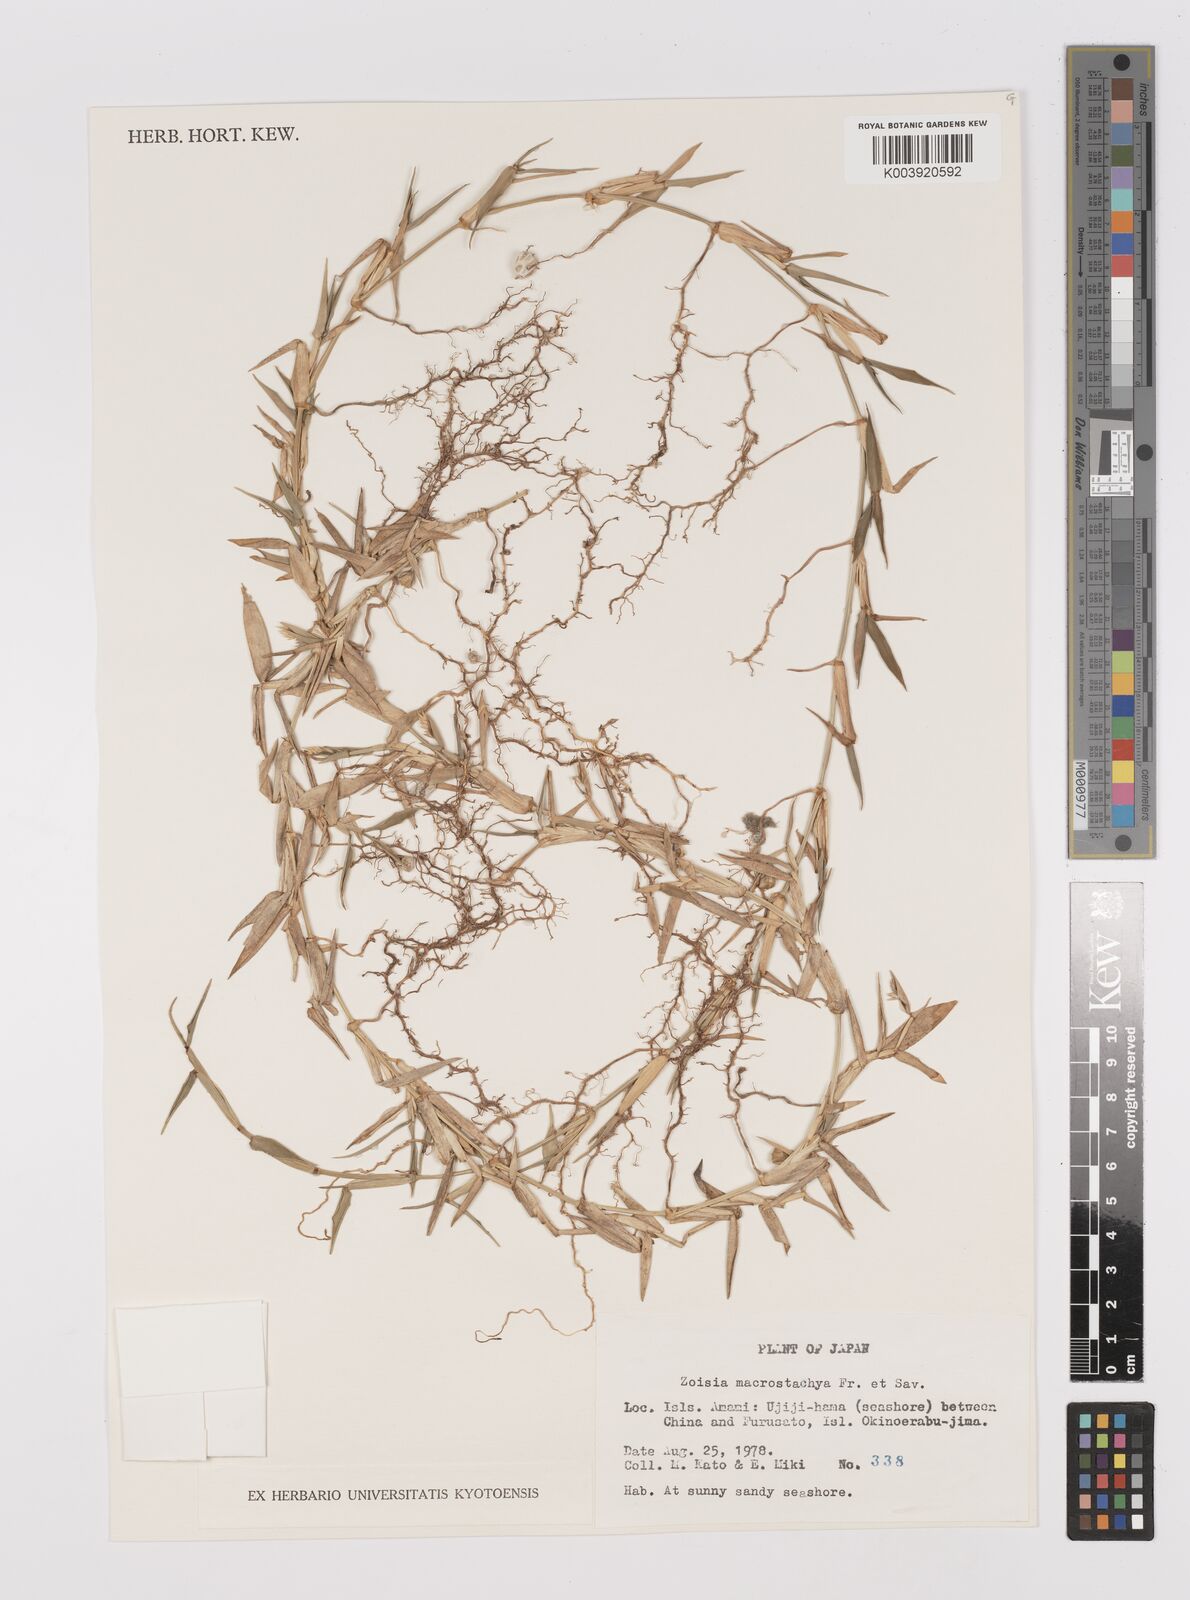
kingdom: Plantae
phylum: Tracheophyta
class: Liliopsida
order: Poales
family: Poaceae
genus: Zoysia
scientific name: Zoysia macrostachya
